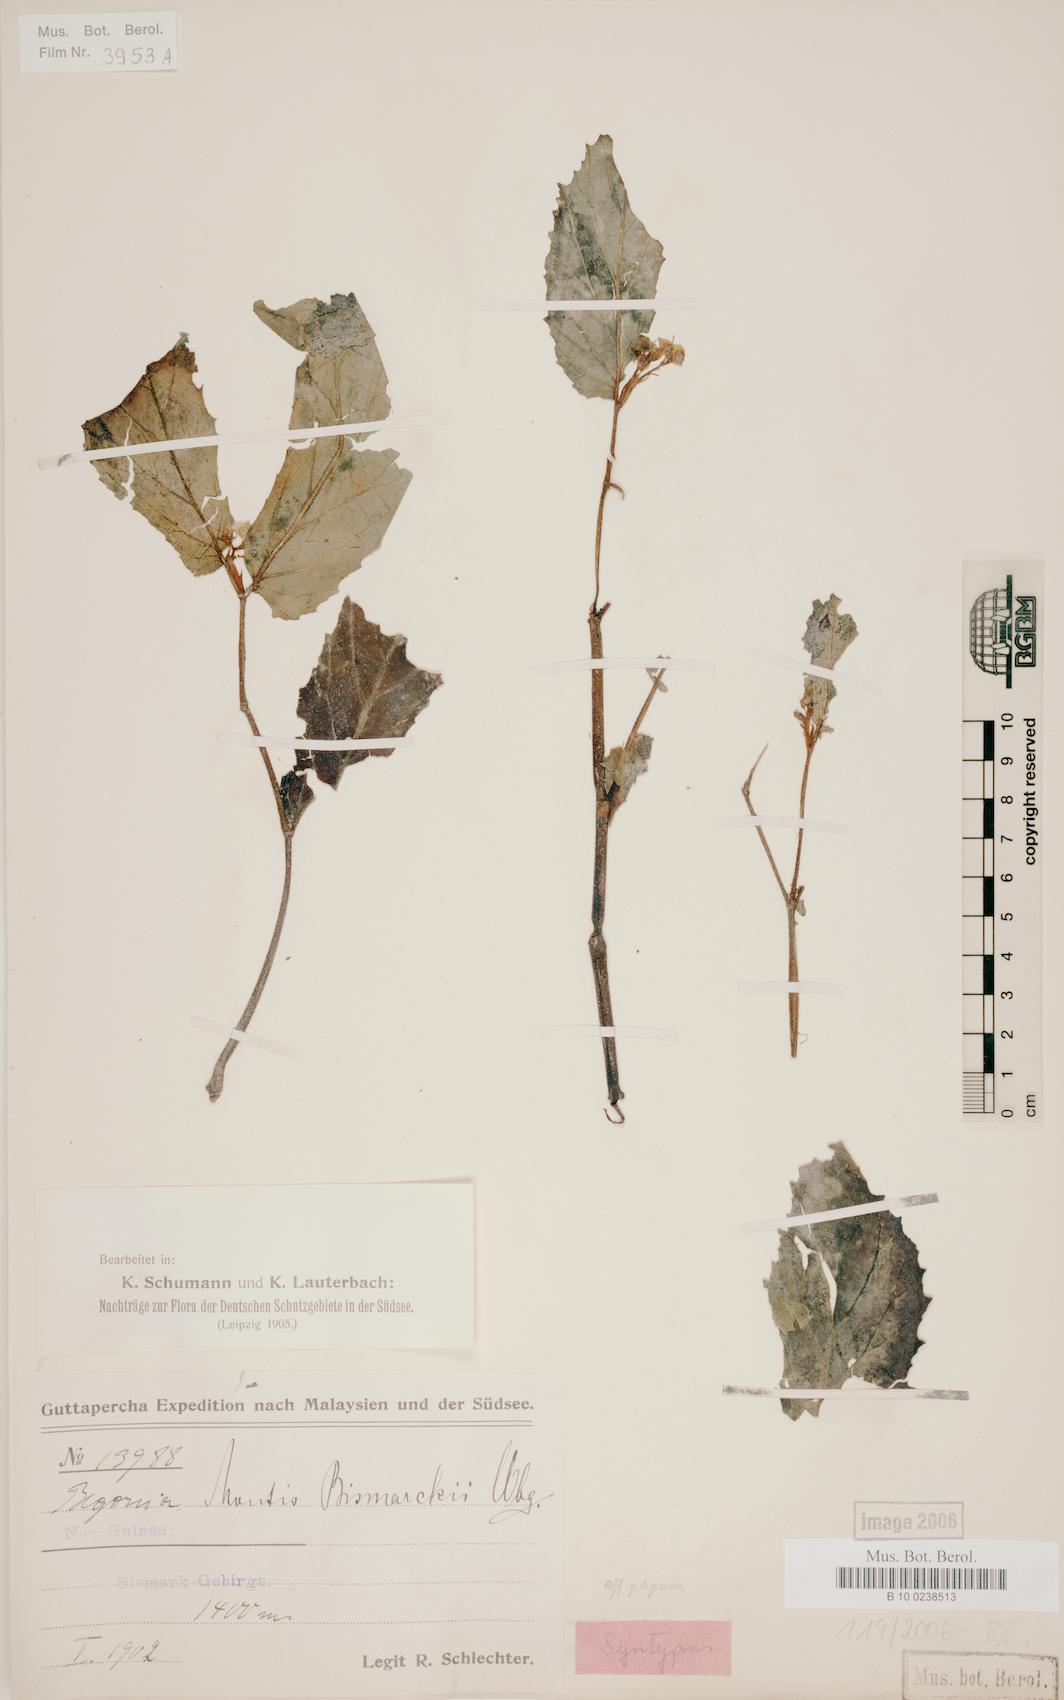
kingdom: Plantae
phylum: Tracheophyta
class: Magnoliopsida
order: Cucurbitales
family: Begoniaceae
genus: Begonia
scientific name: Begonia montis-bismarckii
